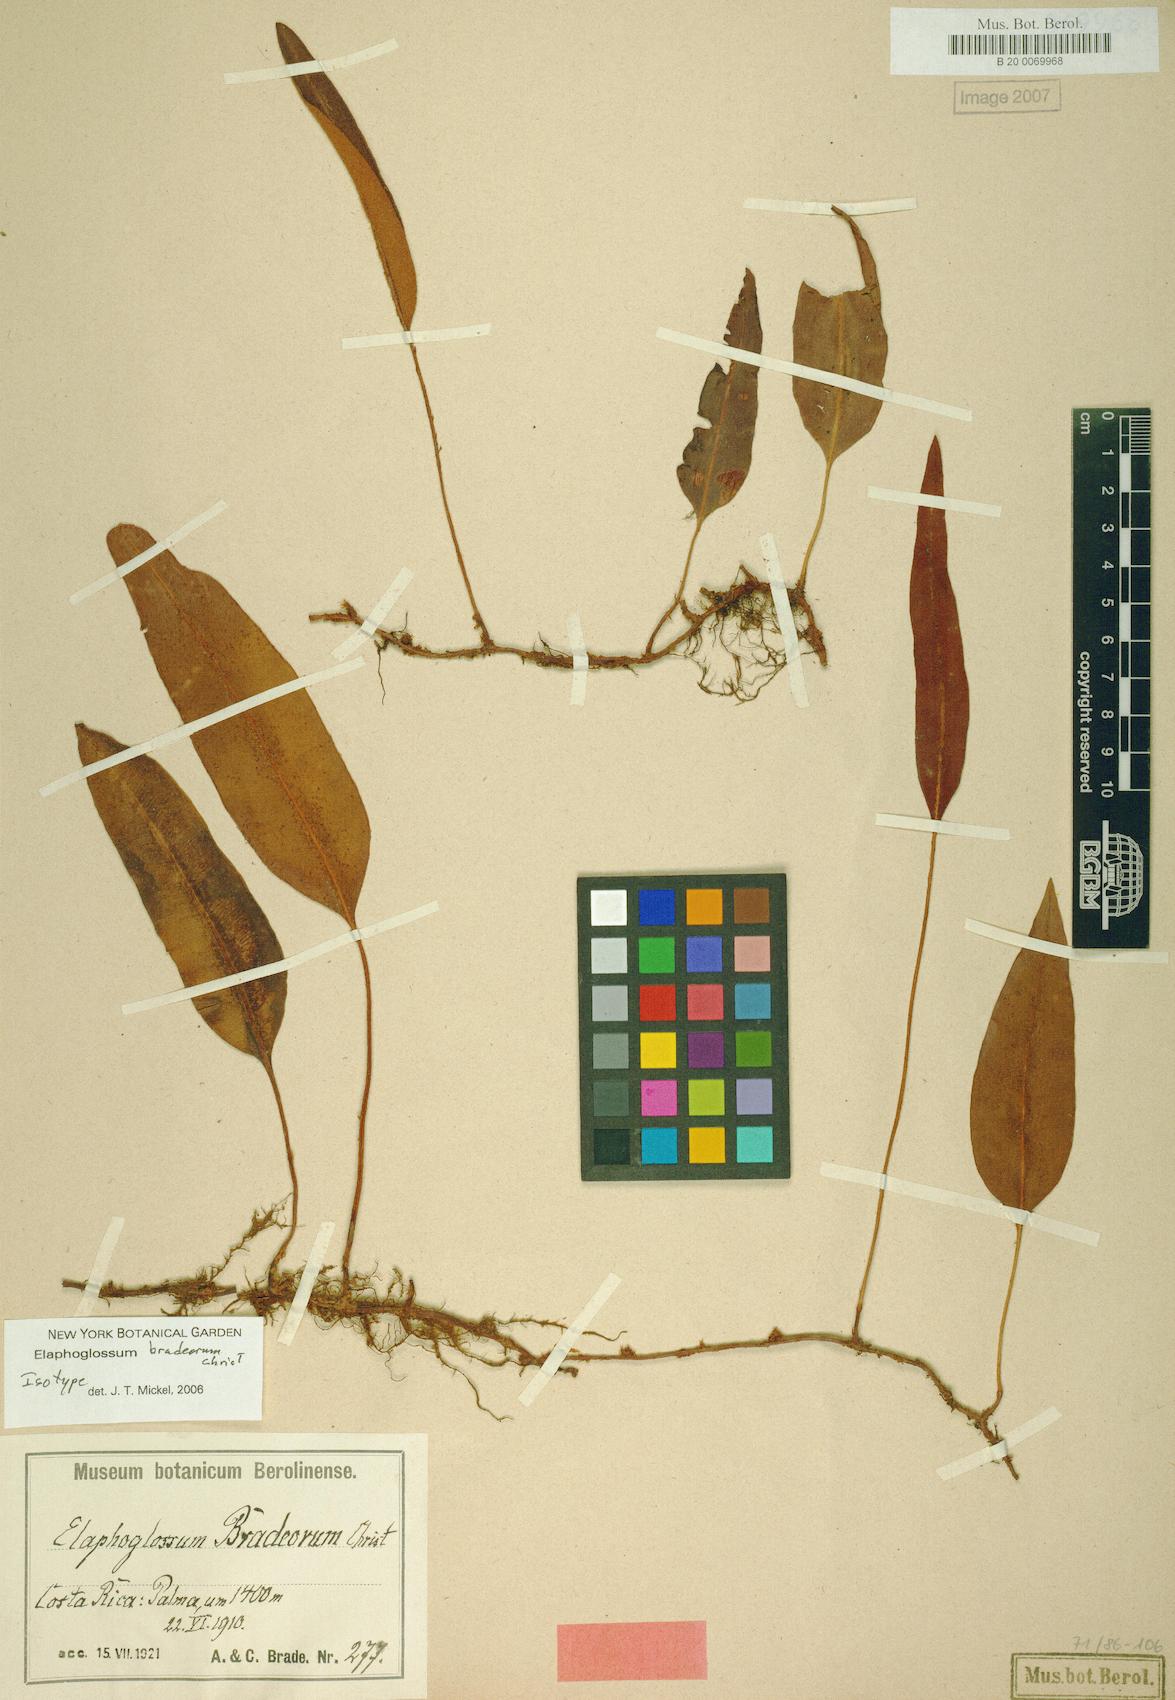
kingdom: Plantae
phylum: Tracheophyta
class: Polypodiopsida
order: Polypodiales
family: Dryopteridaceae
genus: Elaphoglossum
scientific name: Elaphoglossum proximum
